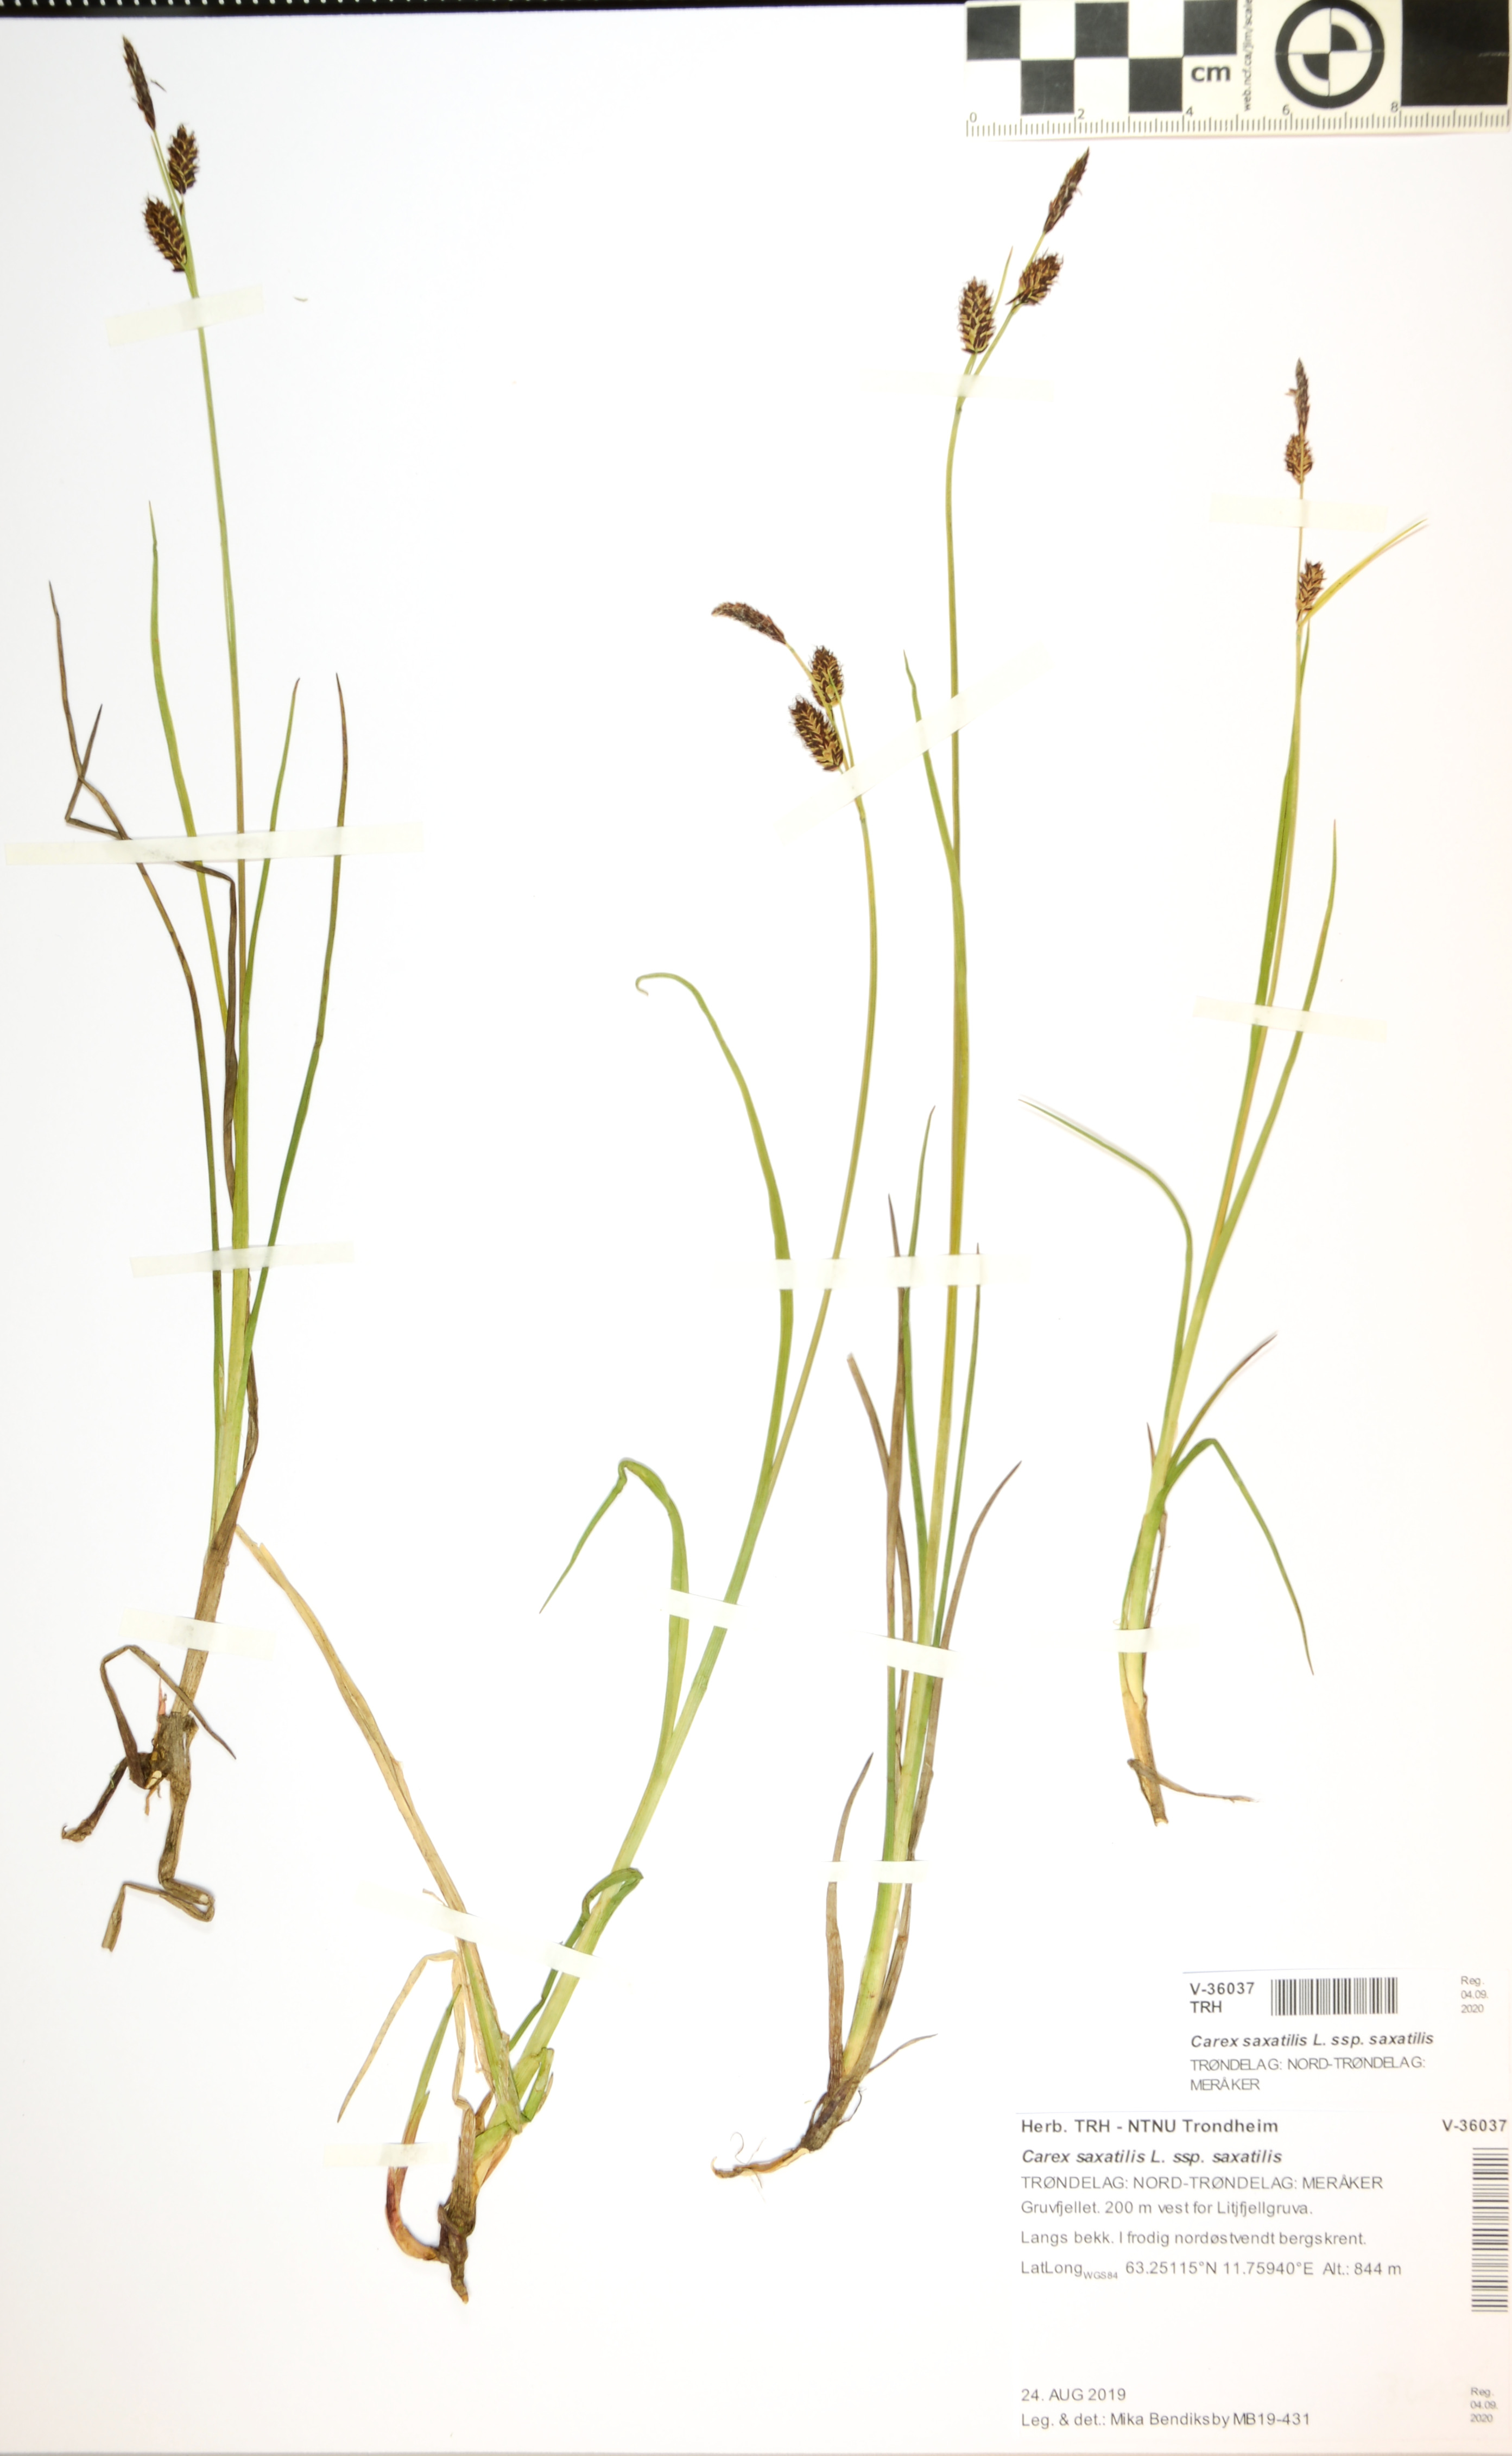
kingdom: Plantae
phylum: Tracheophyta
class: Liliopsida
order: Poales
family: Cyperaceae
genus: Carex
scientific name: Carex saxatilis
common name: Russet sedge
